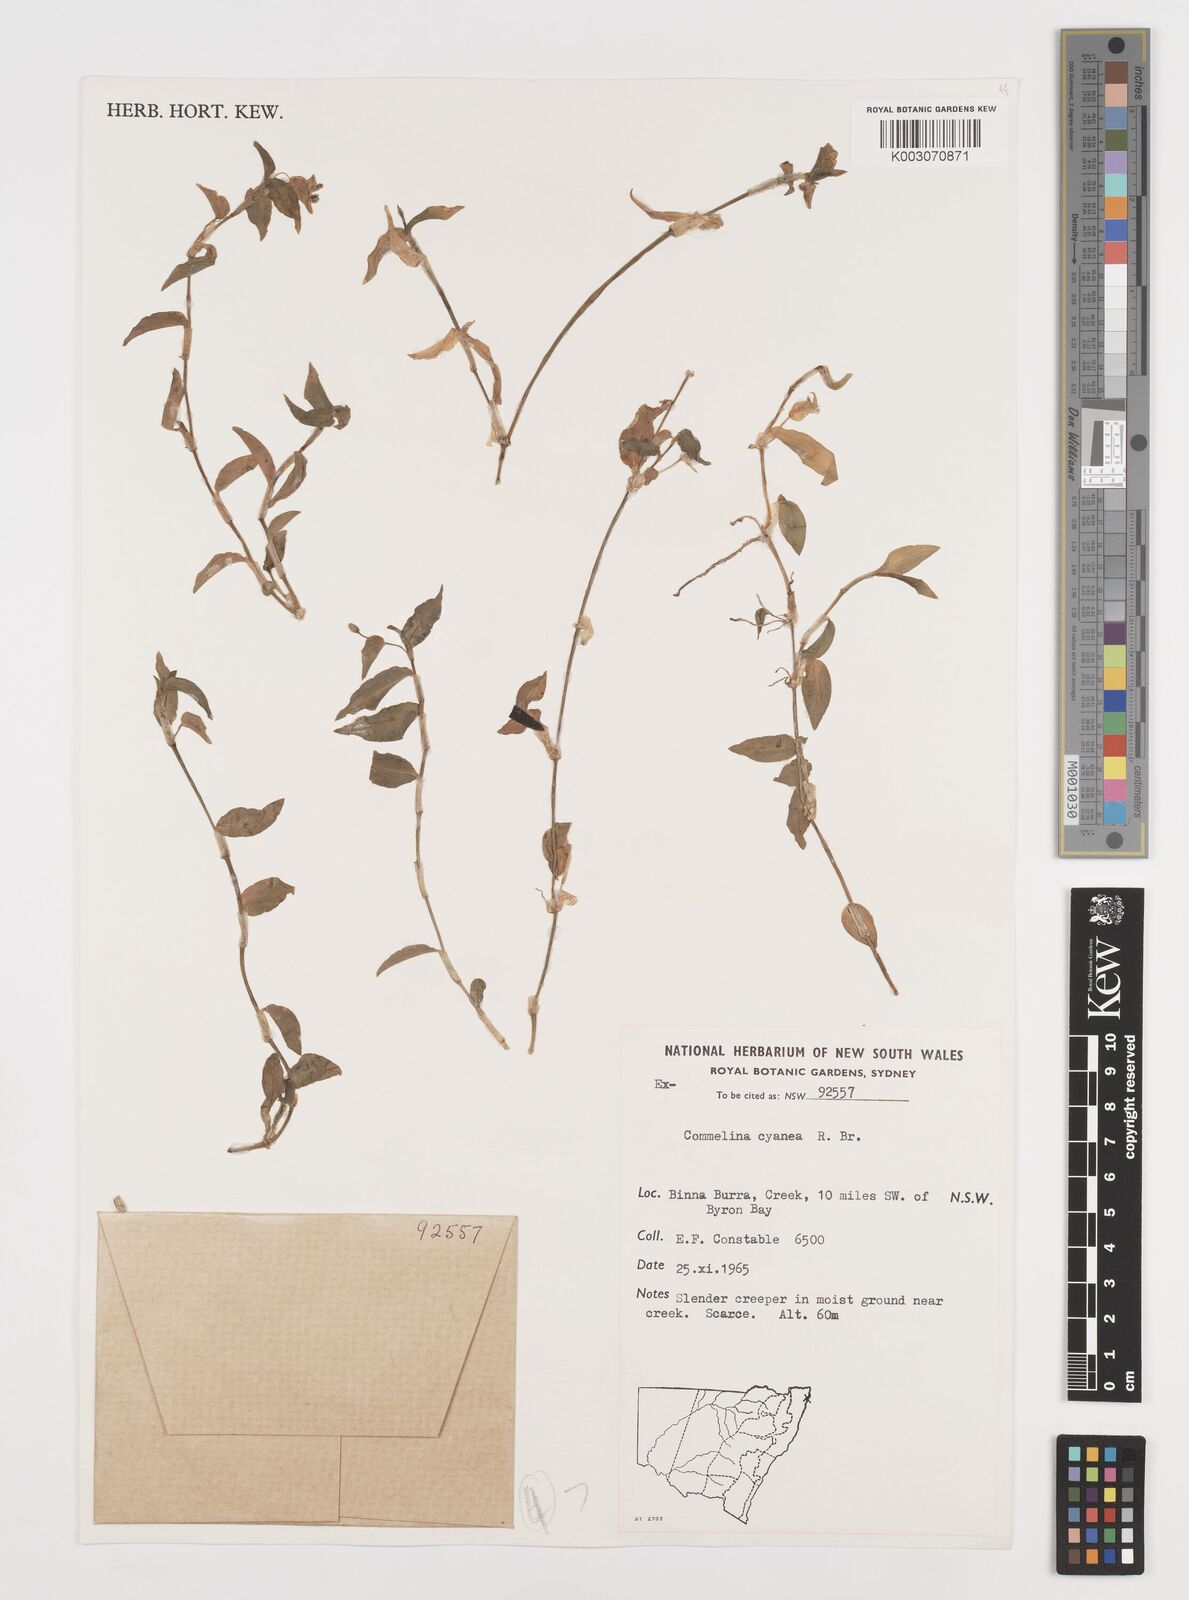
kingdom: Plantae
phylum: Tracheophyta
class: Liliopsida
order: Commelinales
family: Commelinaceae
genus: Commelina
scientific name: Commelina cyanea
